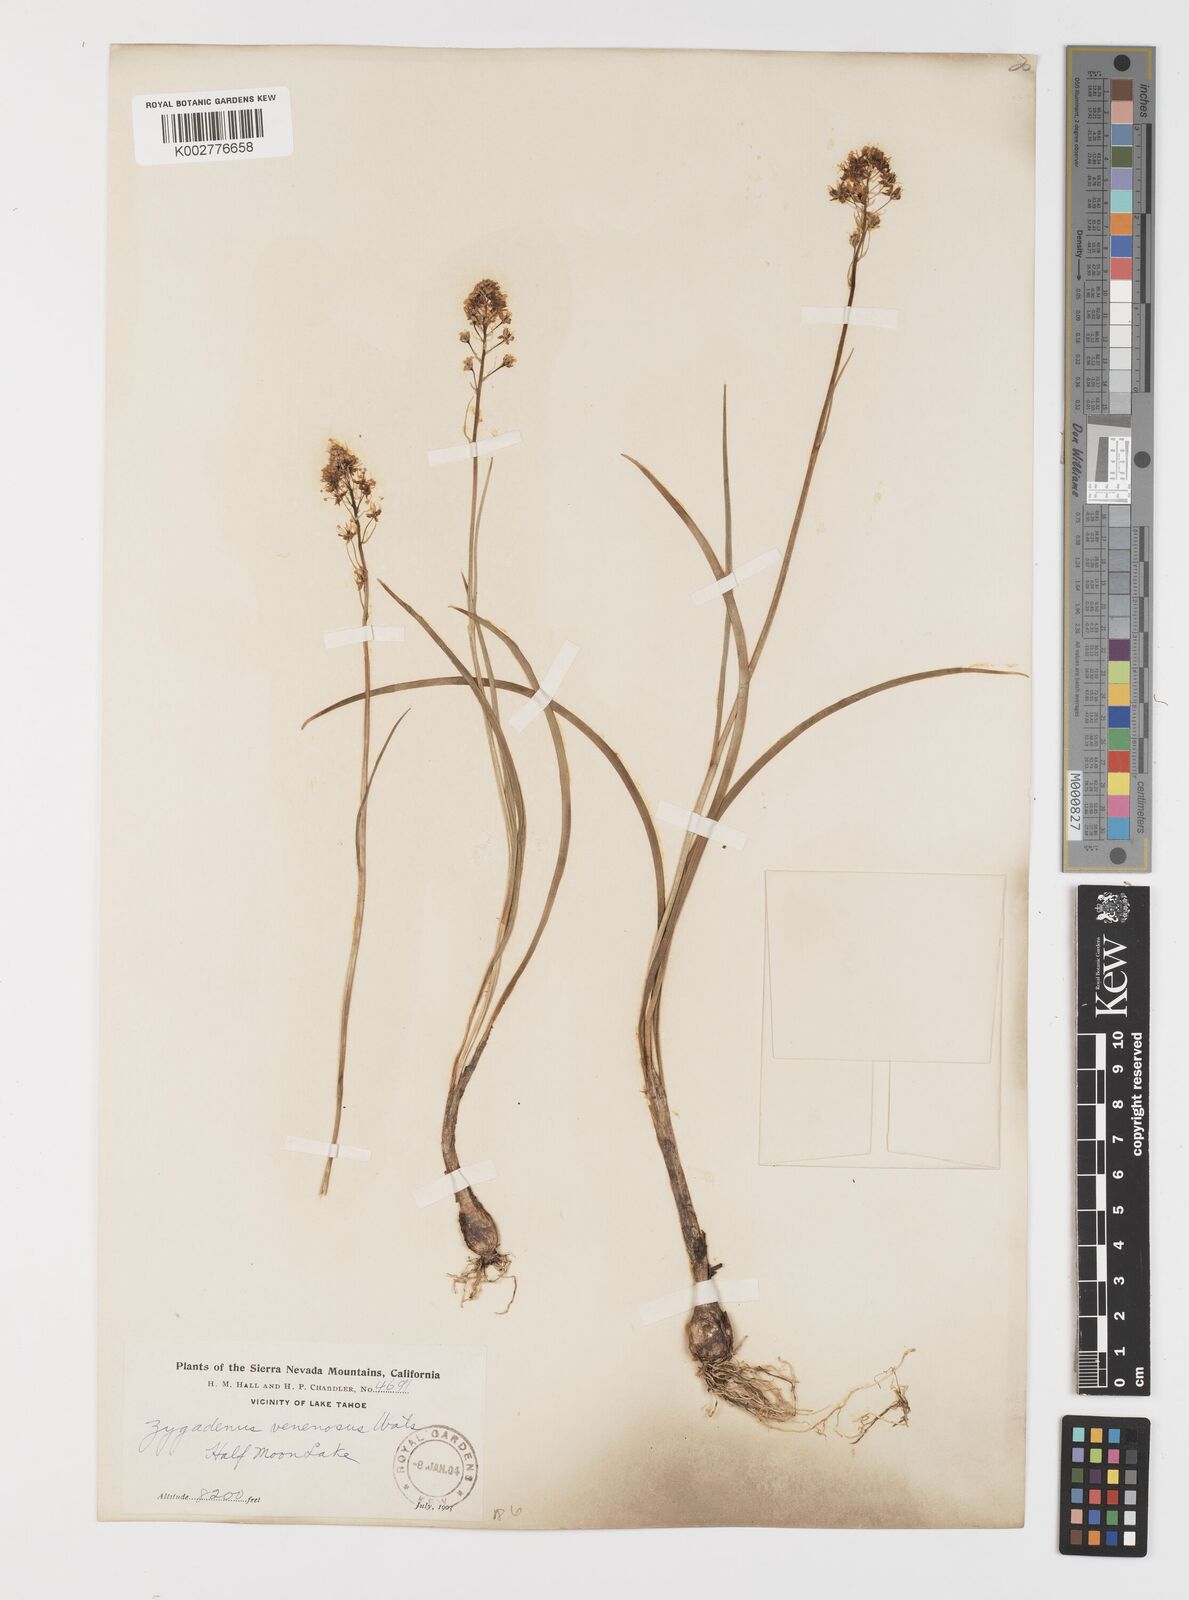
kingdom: Plantae
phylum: Tracheophyta
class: Liliopsida
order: Liliales
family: Melanthiaceae
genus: Toxicoscordion
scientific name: Toxicoscordion venenosum
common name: Meadow death camas
